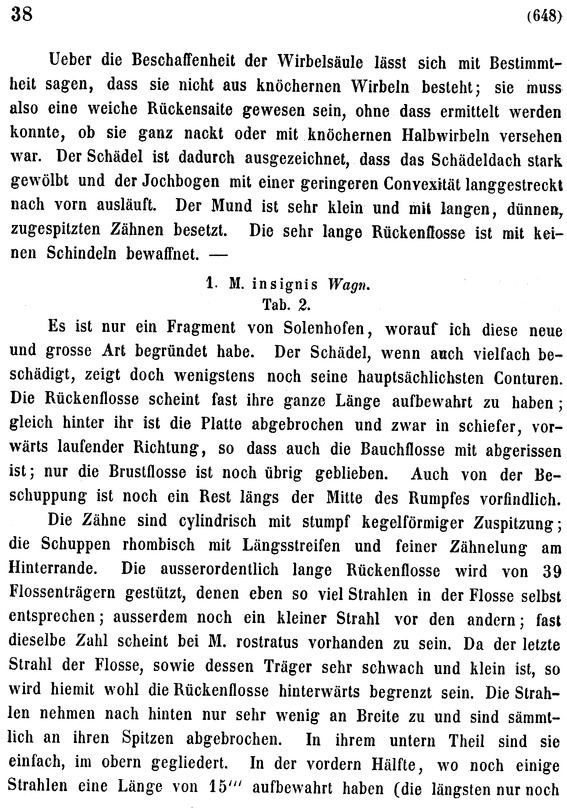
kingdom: Animalia
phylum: Chordata
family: Macrosemiidae
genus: Macrosemius
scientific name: Macrosemius rostratus
